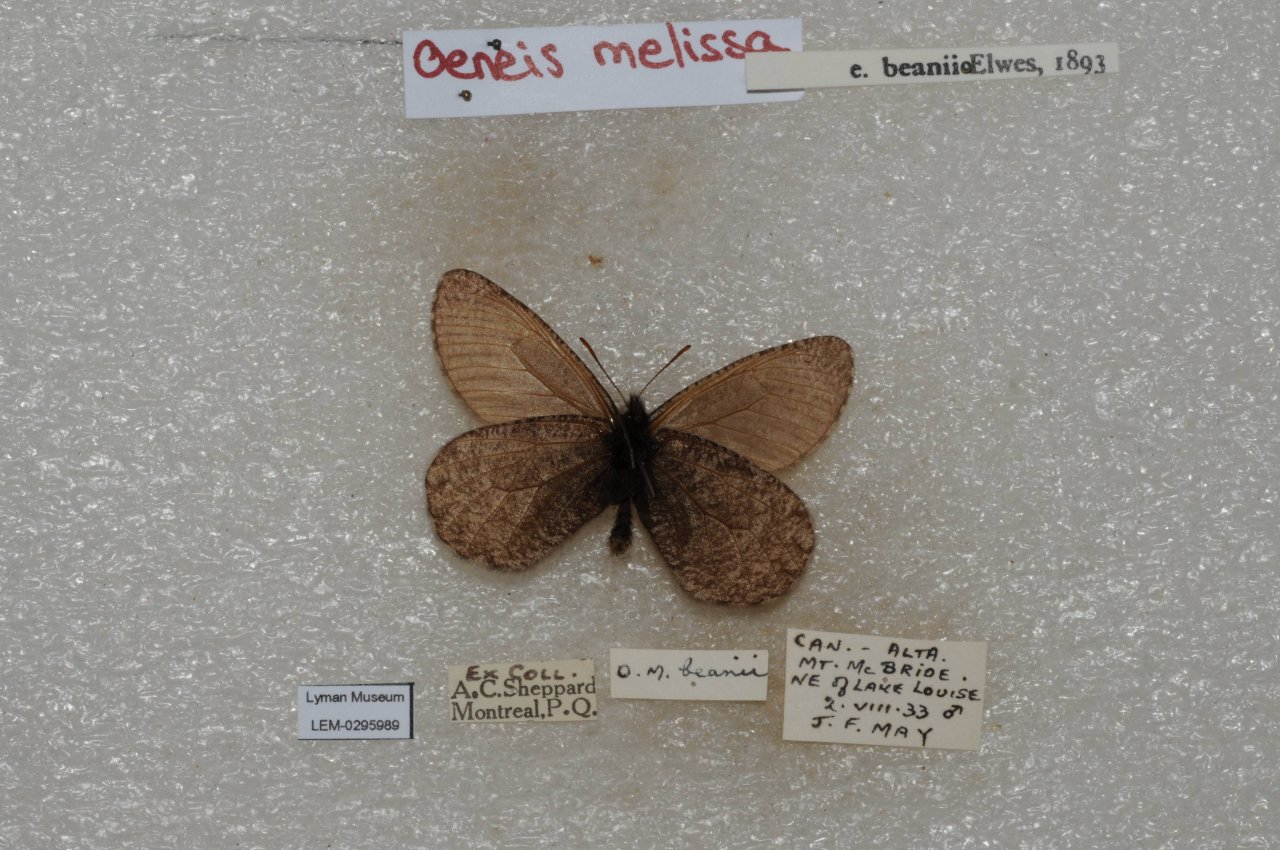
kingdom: Animalia
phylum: Arthropoda
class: Insecta
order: Lepidoptera
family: Nymphalidae
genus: Oeneis
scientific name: Oeneis melissa
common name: Melissa Arctic
